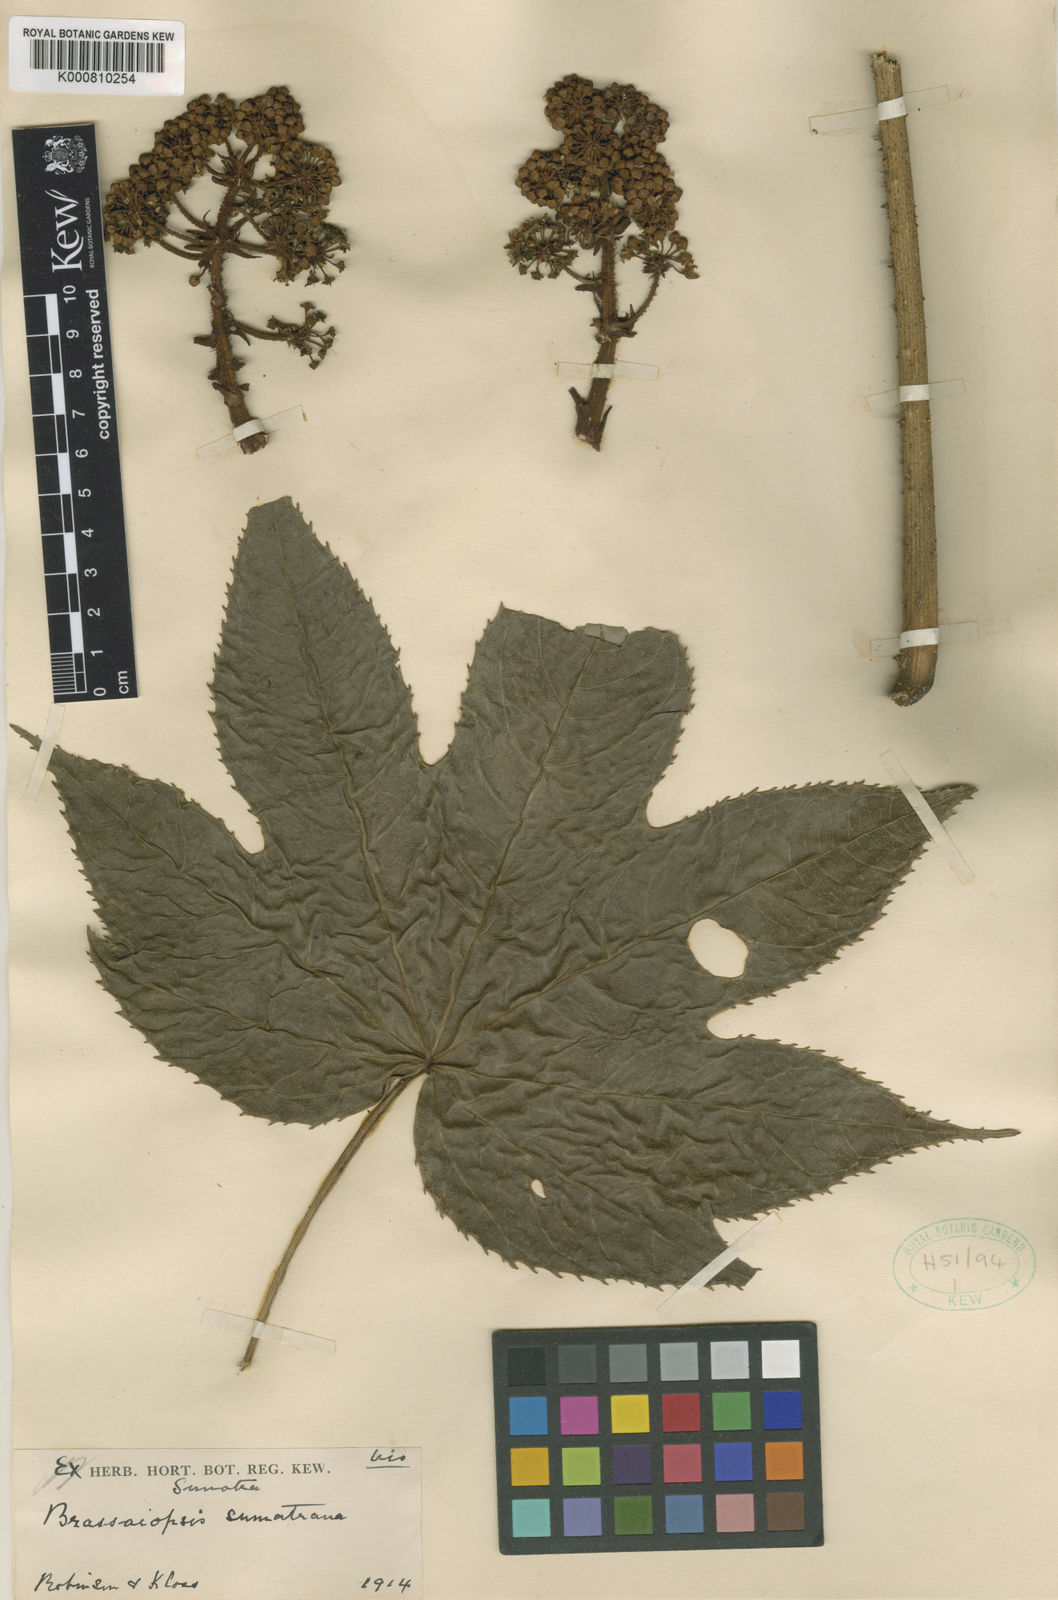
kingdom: Plantae
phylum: Tracheophyta
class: Magnoliopsida
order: Apiales
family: Araliaceae
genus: Brassaiopsis
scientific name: Brassaiopsis sumatrana
